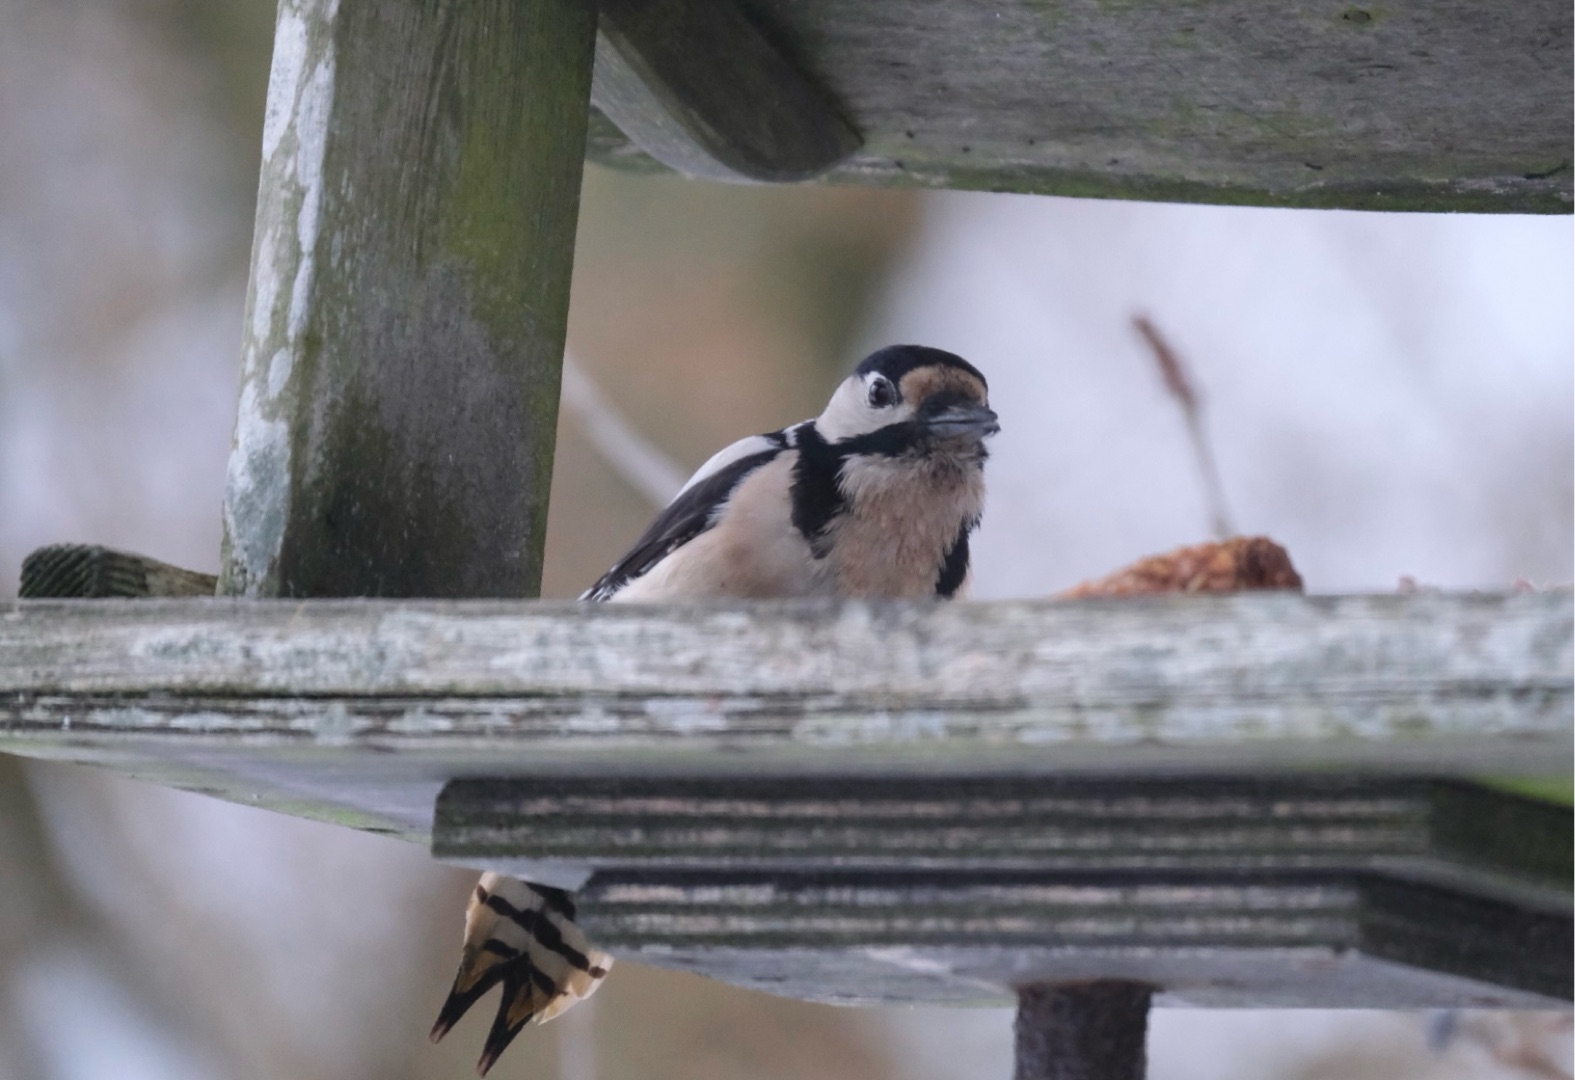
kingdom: Animalia
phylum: Chordata
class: Aves
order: Piciformes
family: Picidae
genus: Dendrocopos
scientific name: Dendrocopos major
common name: Stor flagspætte
